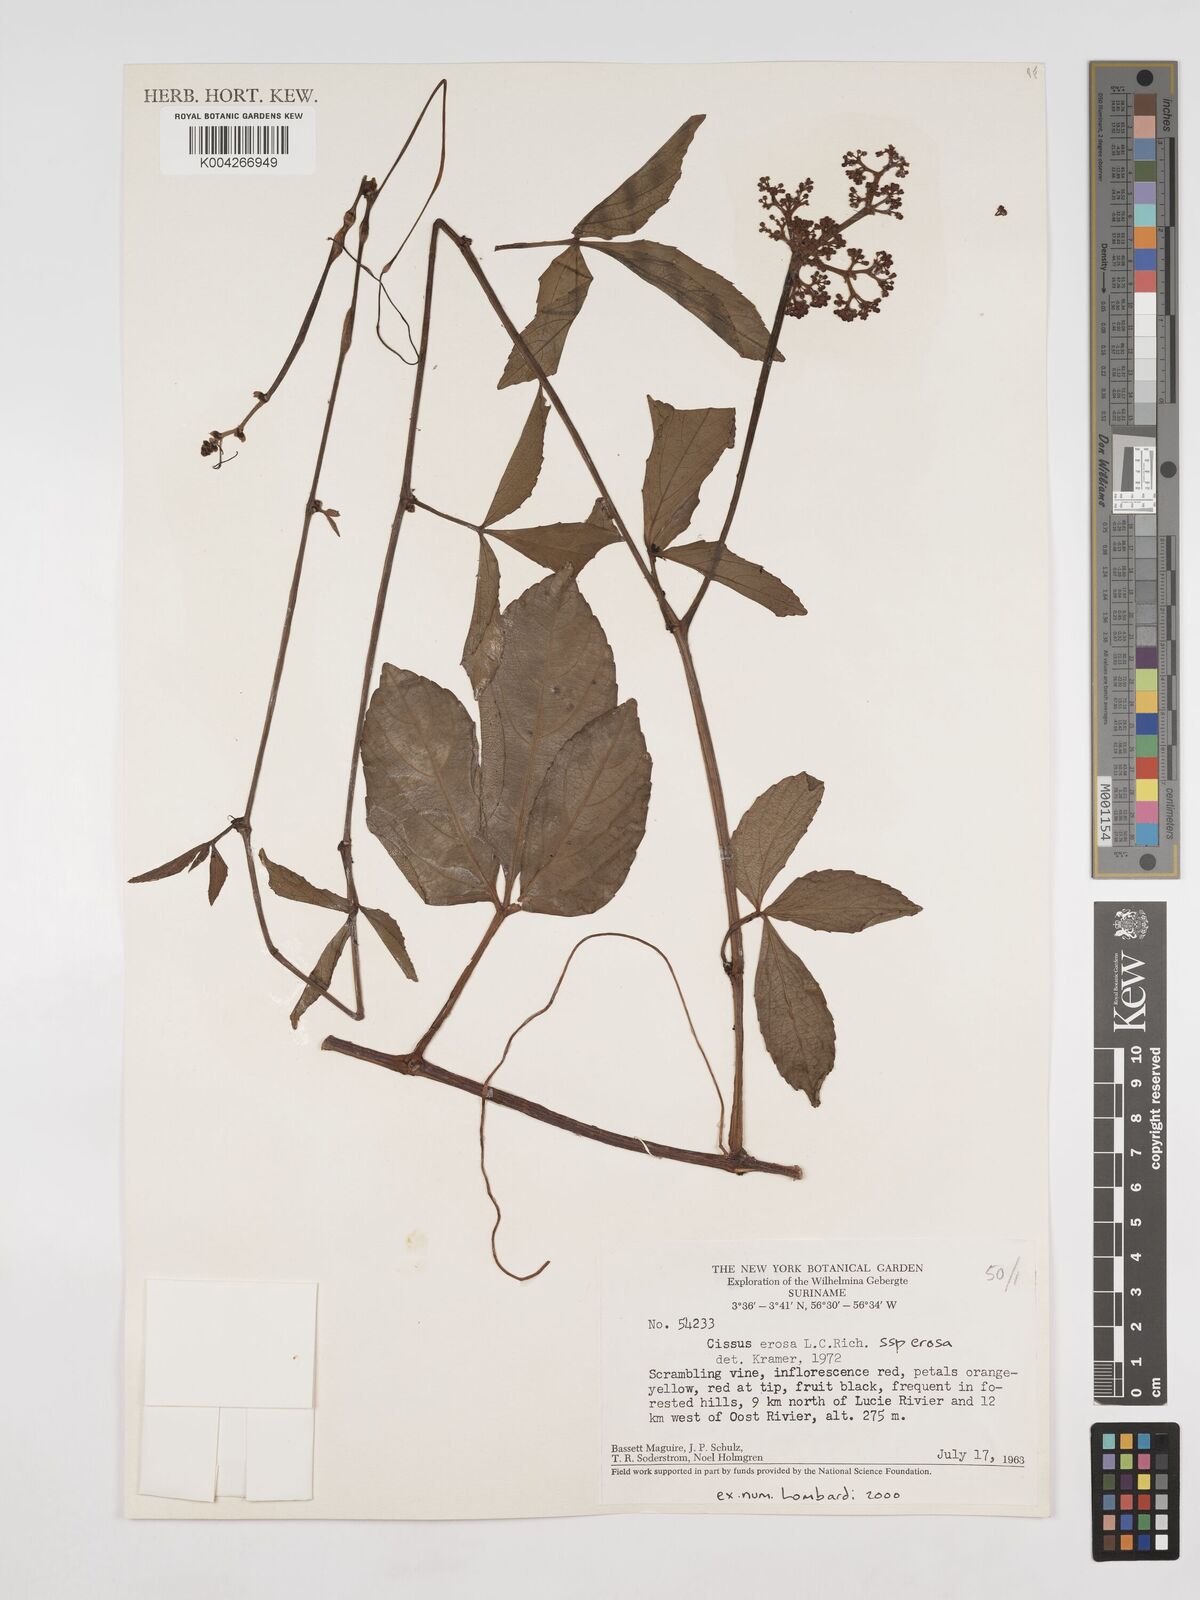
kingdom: Plantae
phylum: Tracheophyta
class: Magnoliopsida
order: Vitales
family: Vitaceae
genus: Cissus
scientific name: Cissus erosa
